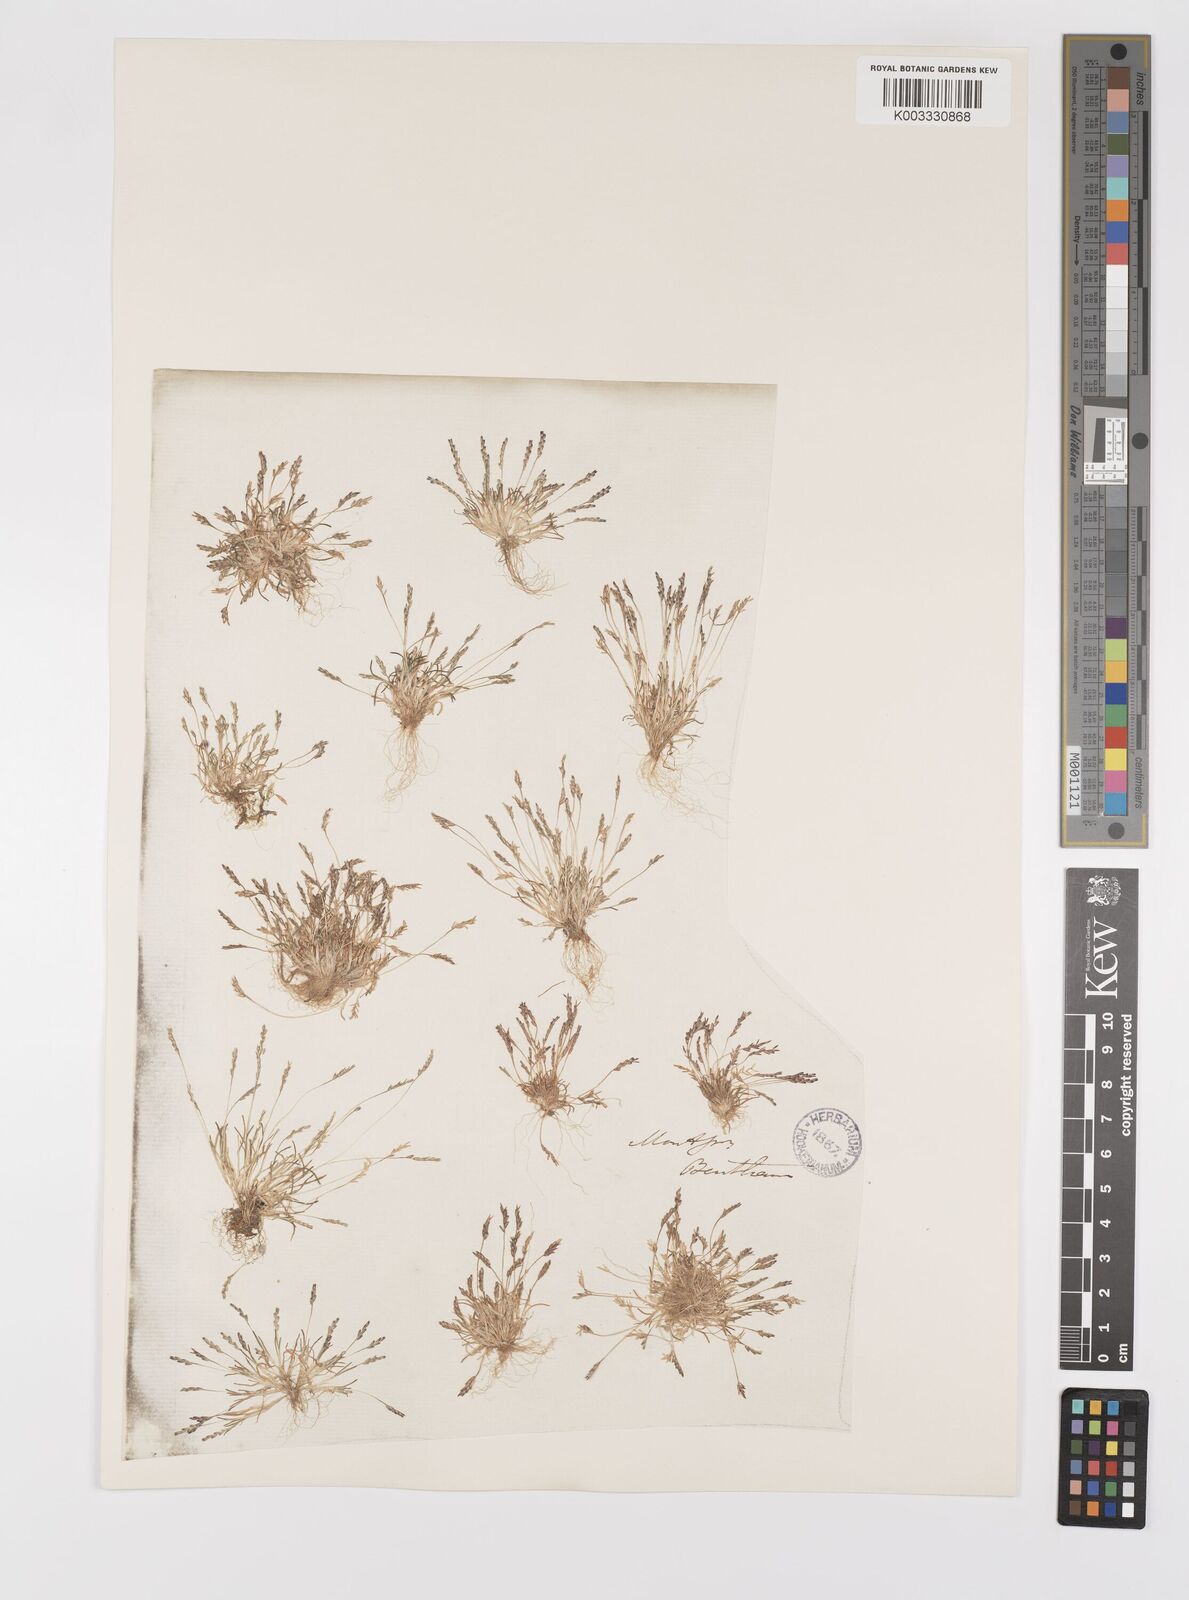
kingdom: Plantae
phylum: Tracheophyta
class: Liliopsida
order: Poales
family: Poaceae
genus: Mibora
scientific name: Mibora minima
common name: Early sand-grass
